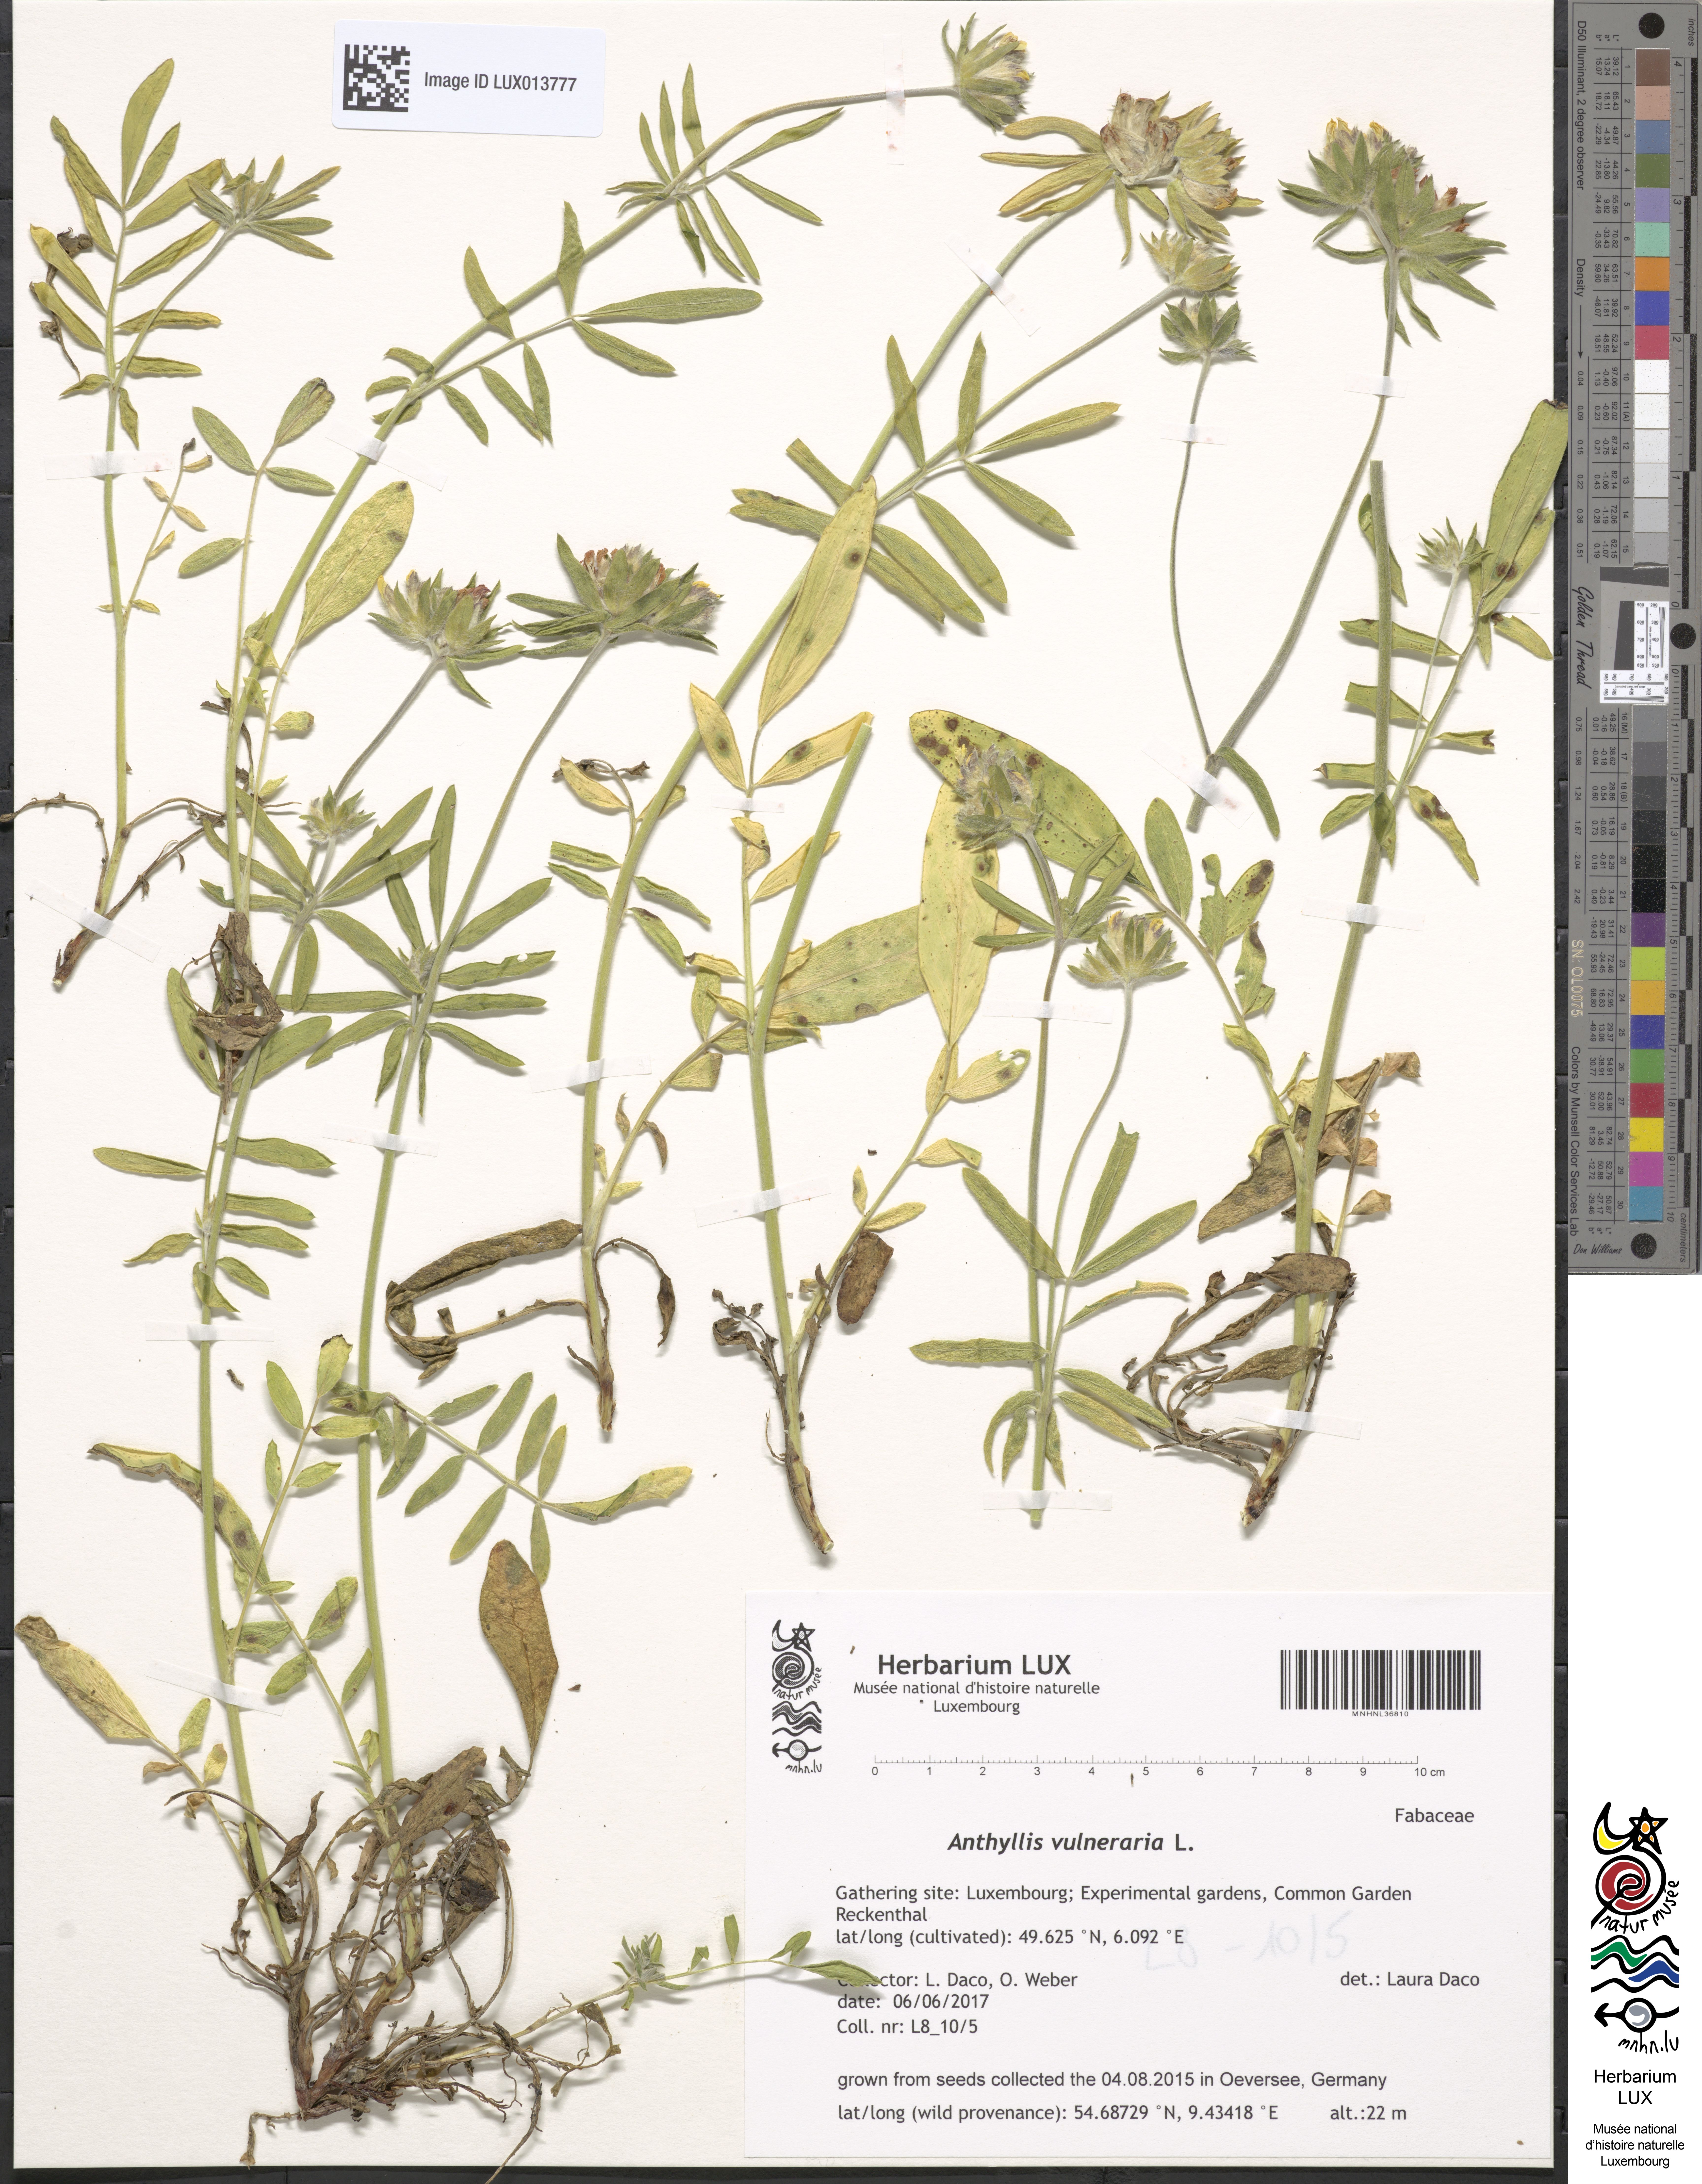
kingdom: Plantae
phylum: Tracheophyta
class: Magnoliopsida
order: Fabales
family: Fabaceae
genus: Anthyllis
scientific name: Anthyllis vulneraria
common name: Kidney vetch
